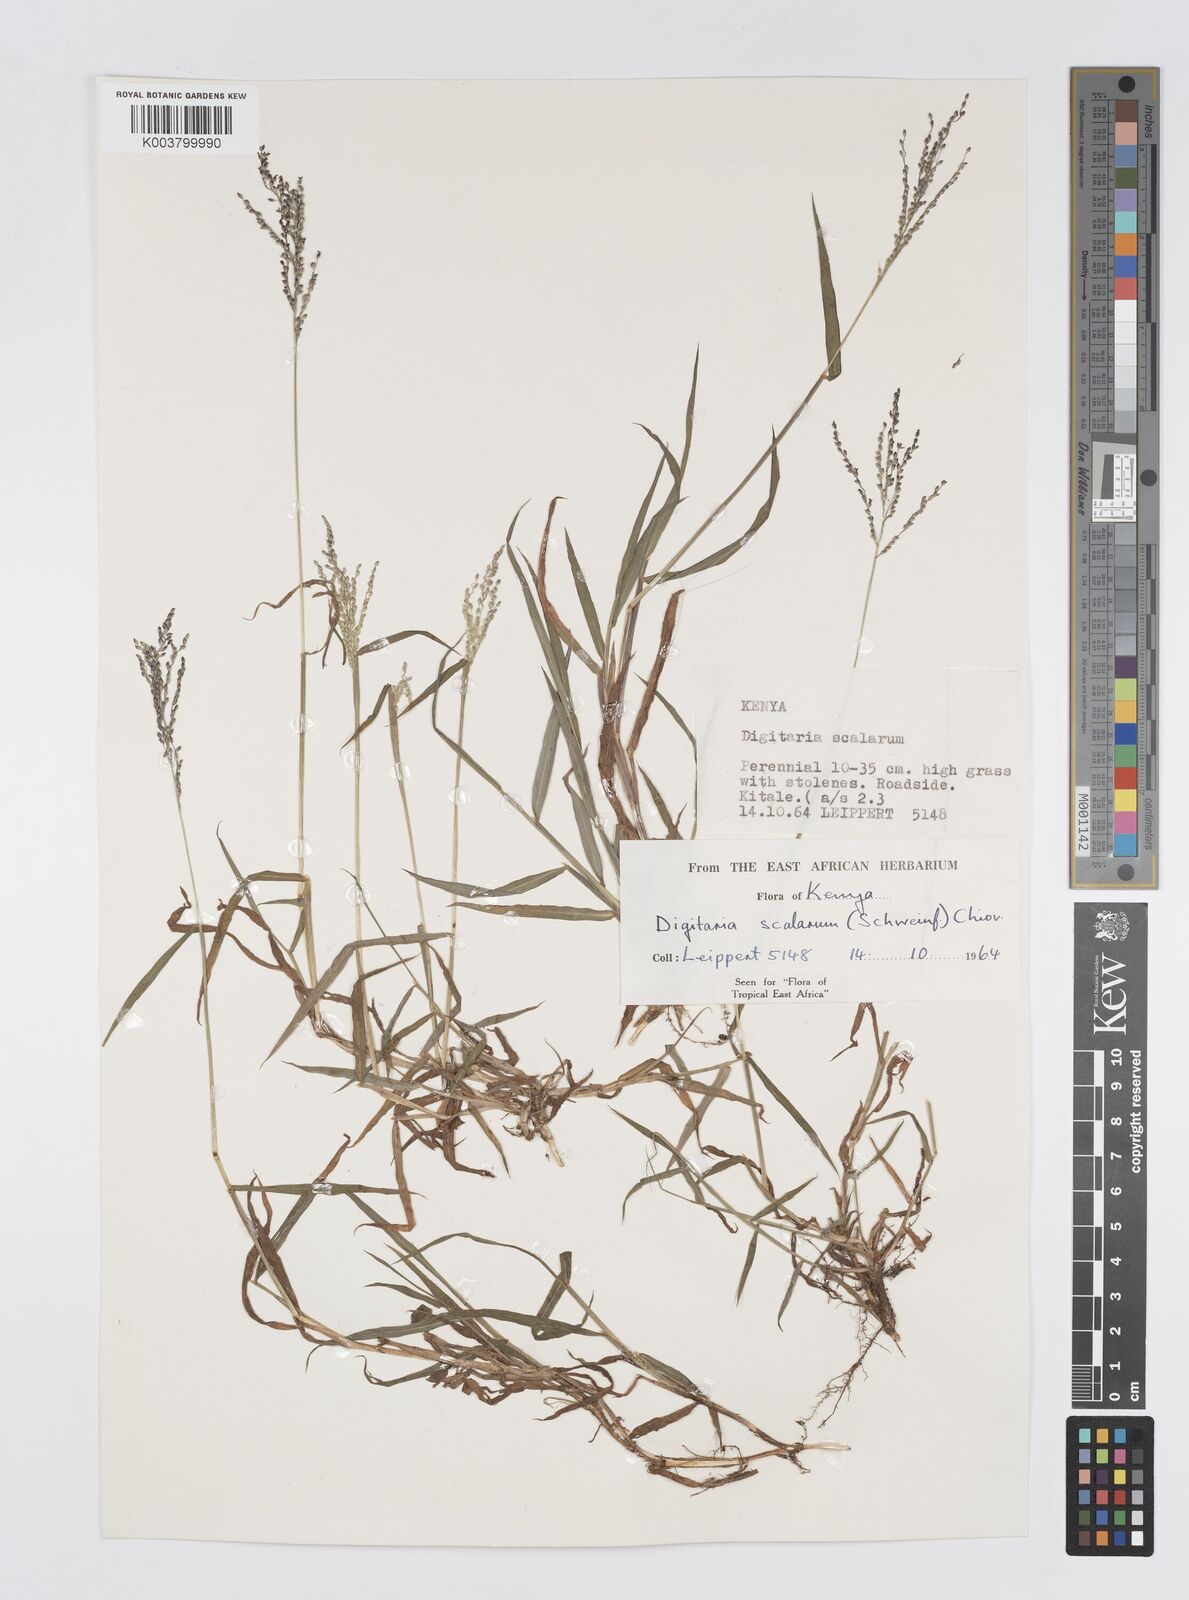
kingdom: Plantae
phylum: Tracheophyta
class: Liliopsida
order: Poales
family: Poaceae
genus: Digitaria
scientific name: Digitaria abyssinica
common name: African couchgrass
